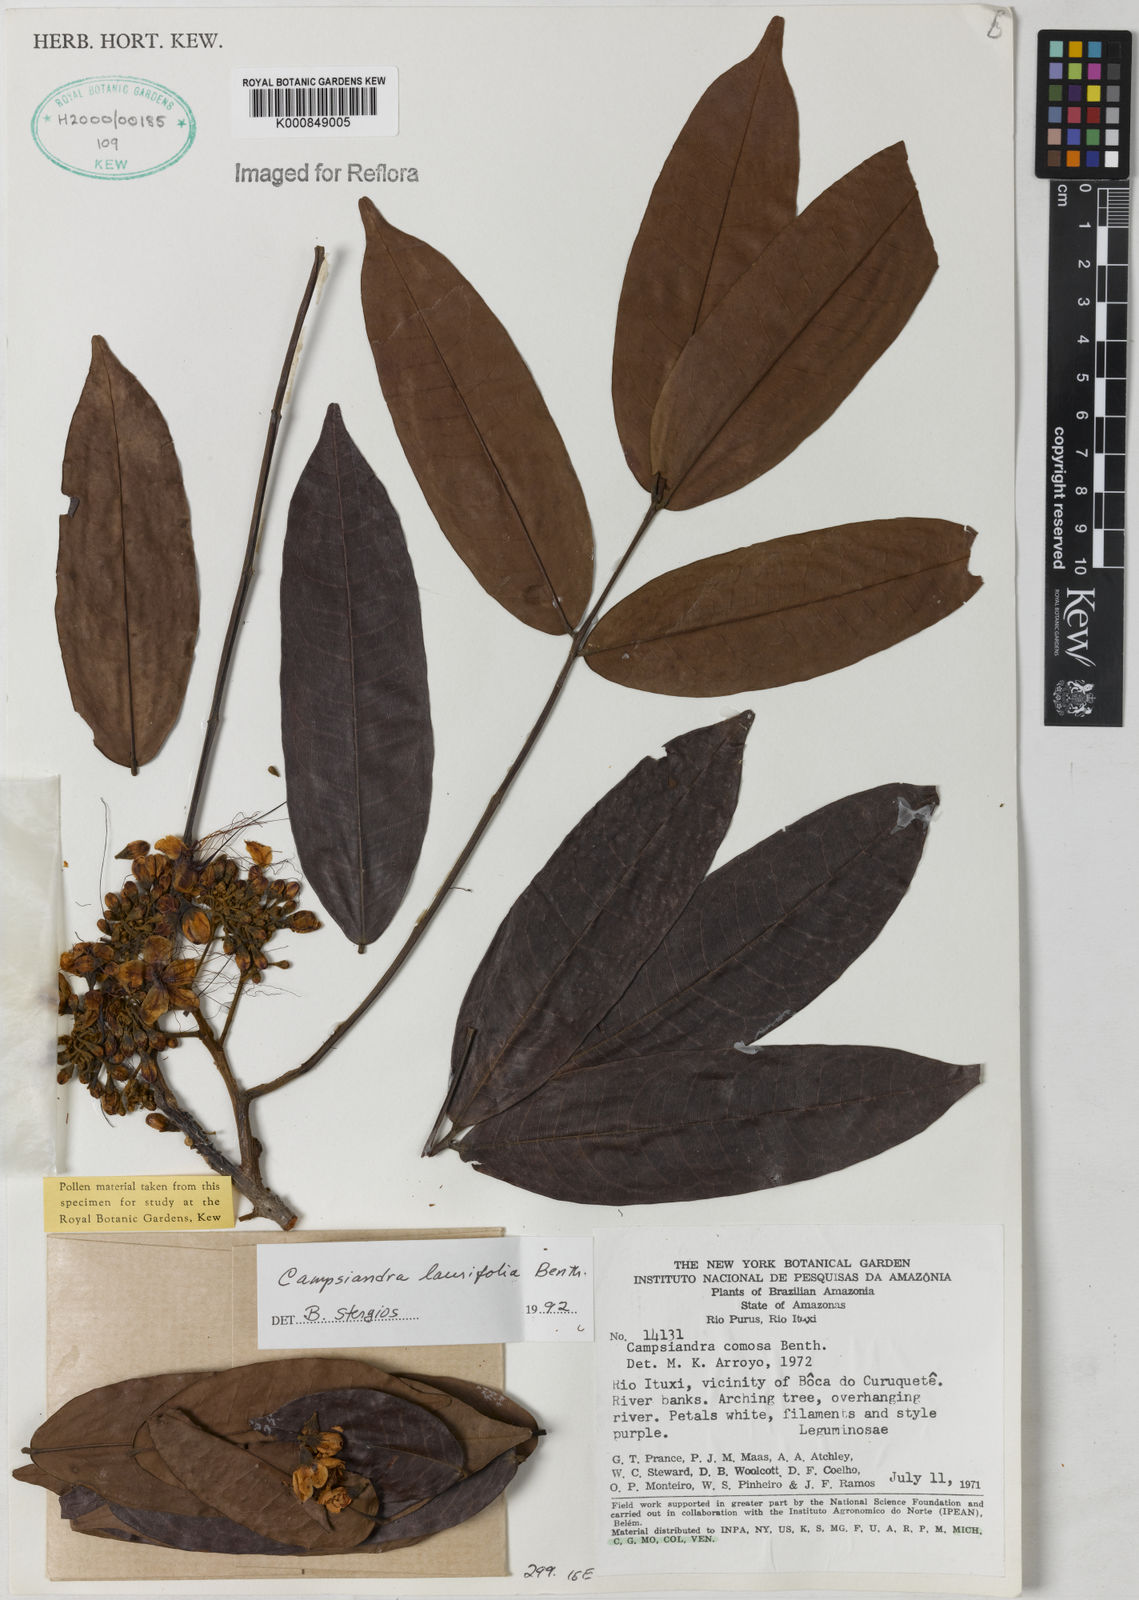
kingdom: Plantae
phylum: Tracheophyta
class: Magnoliopsida
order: Fabales
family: Fabaceae
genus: Campsiandra
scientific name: Campsiandra laurifolia
